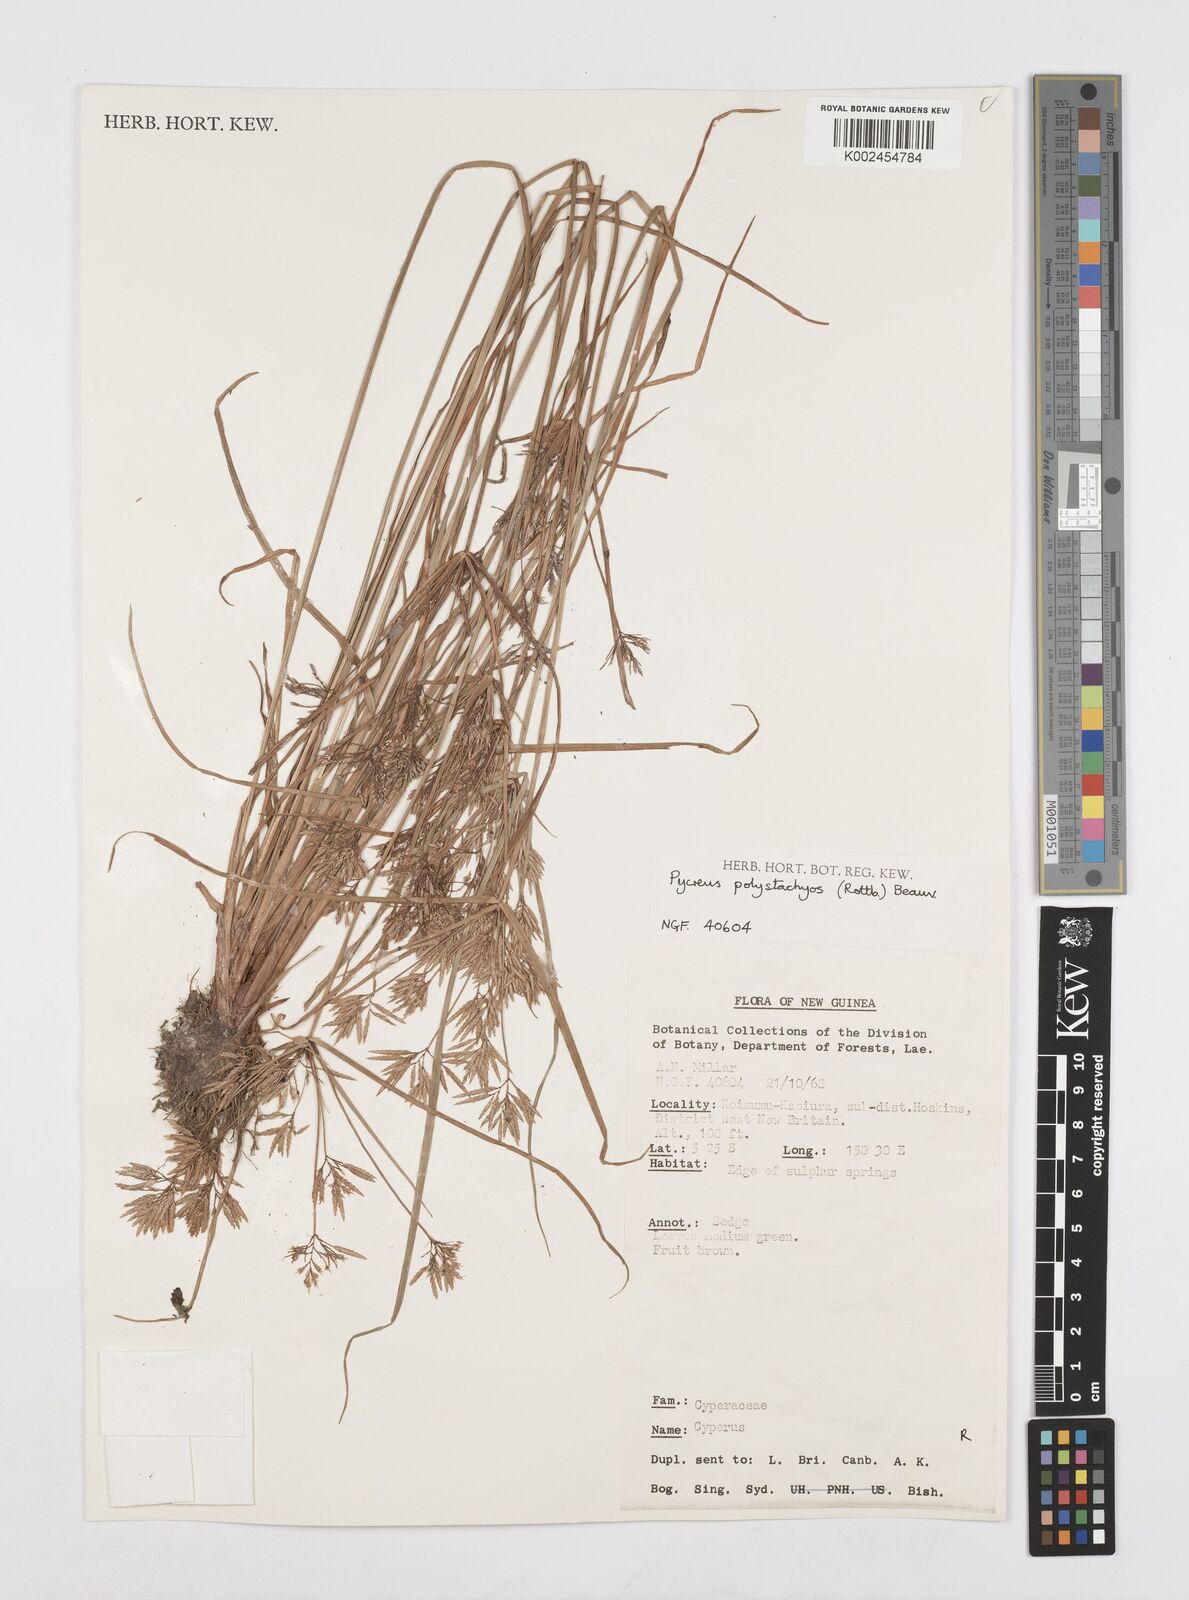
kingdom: Plantae
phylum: Tracheophyta
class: Liliopsida
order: Poales
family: Cyperaceae
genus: Cyperus
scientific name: Cyperus polystachyos
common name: Bunchy flat sedge
